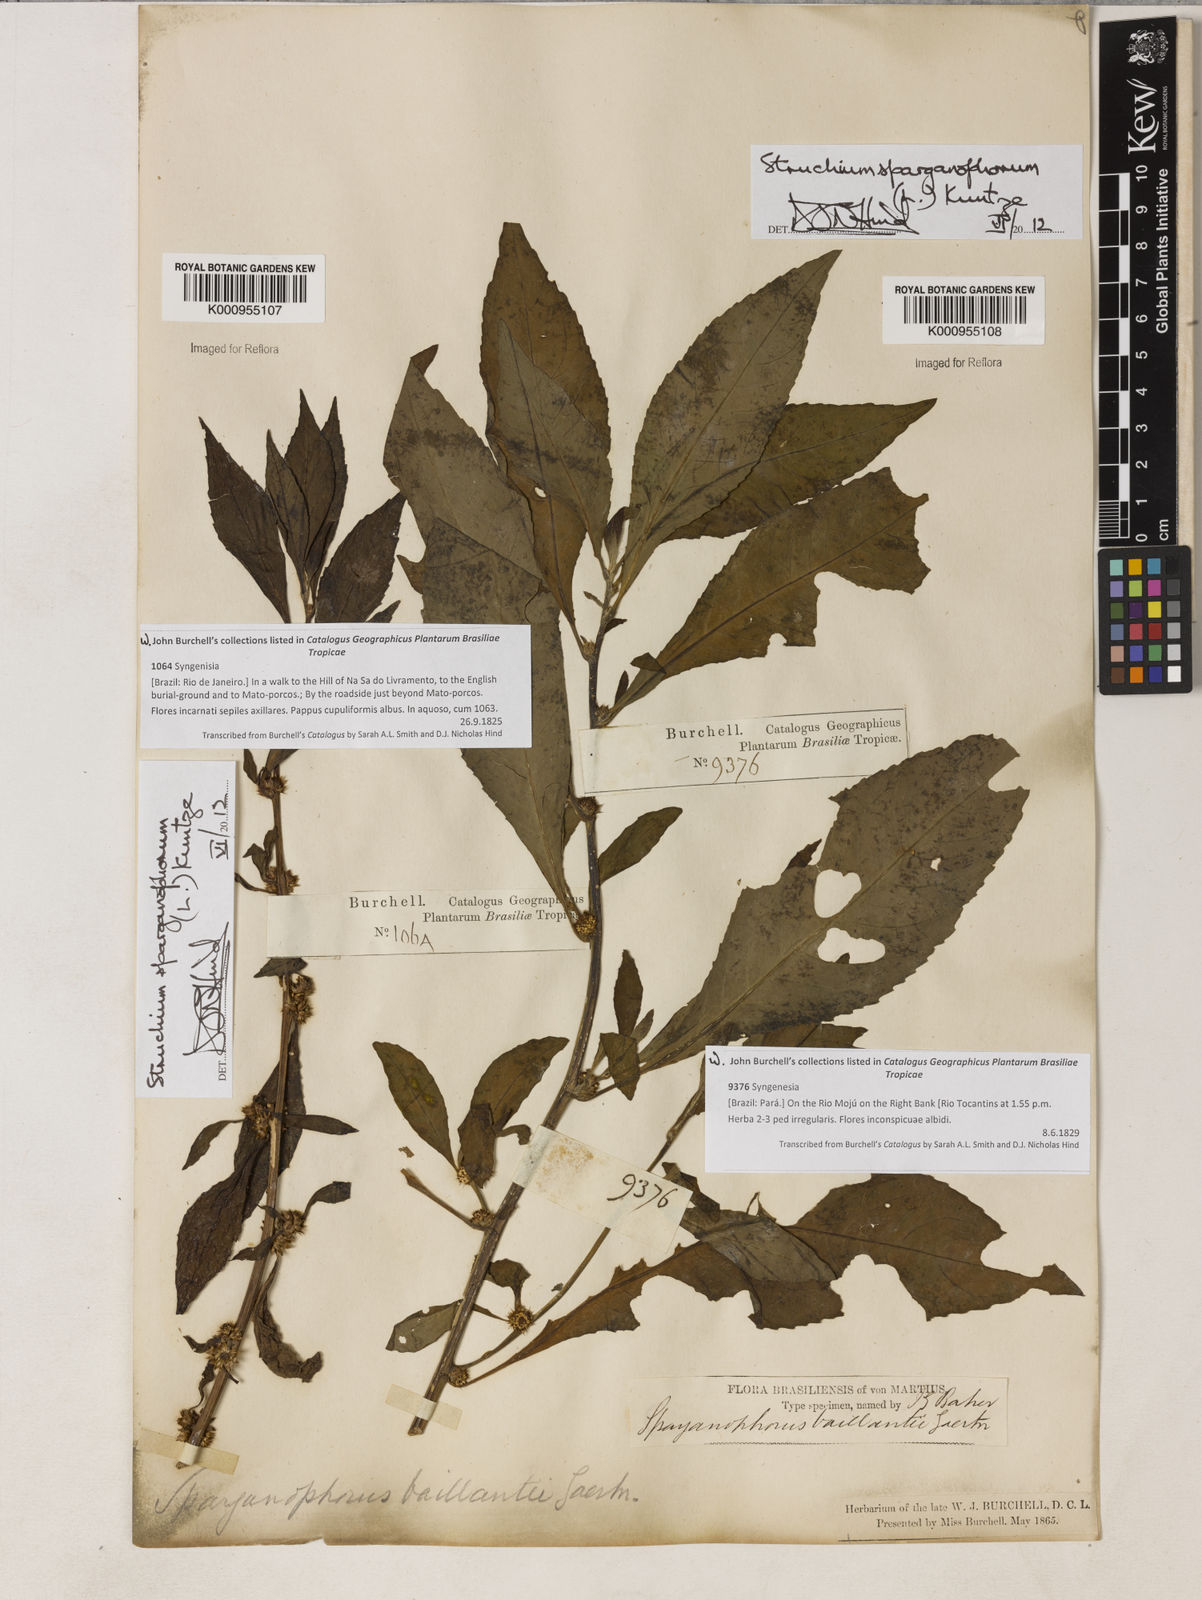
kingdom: Plantae
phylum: Tracheophyta
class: Magnoliopsida
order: Asterales
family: Asteraceae
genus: Struchium
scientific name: Struchium sparganophorum
